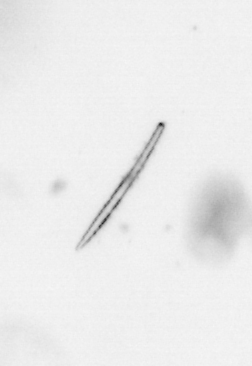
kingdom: Chromista
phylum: Ochrophyta
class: Bacillariophyceae
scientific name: Bacillariophyceae
